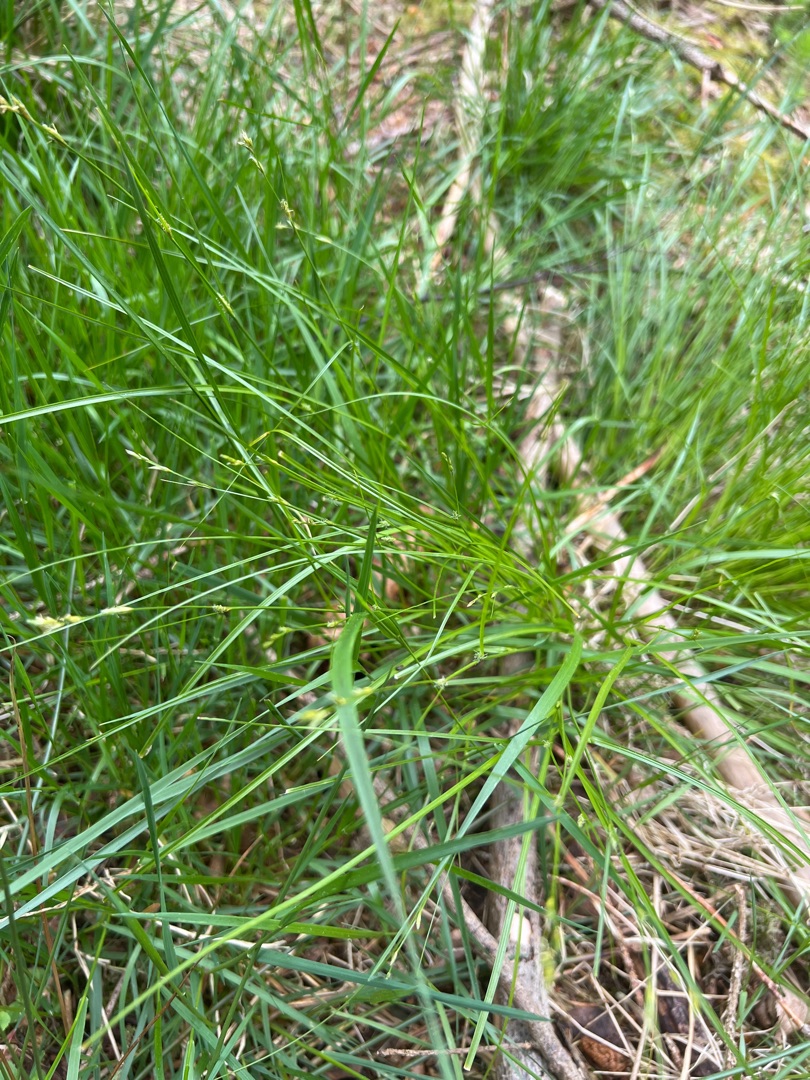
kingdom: Plantae
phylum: Tracheophyta
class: Liliopsida
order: Poales
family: Cyperaceae
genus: Carex
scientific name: Carex remota
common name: Akselblomstret star
